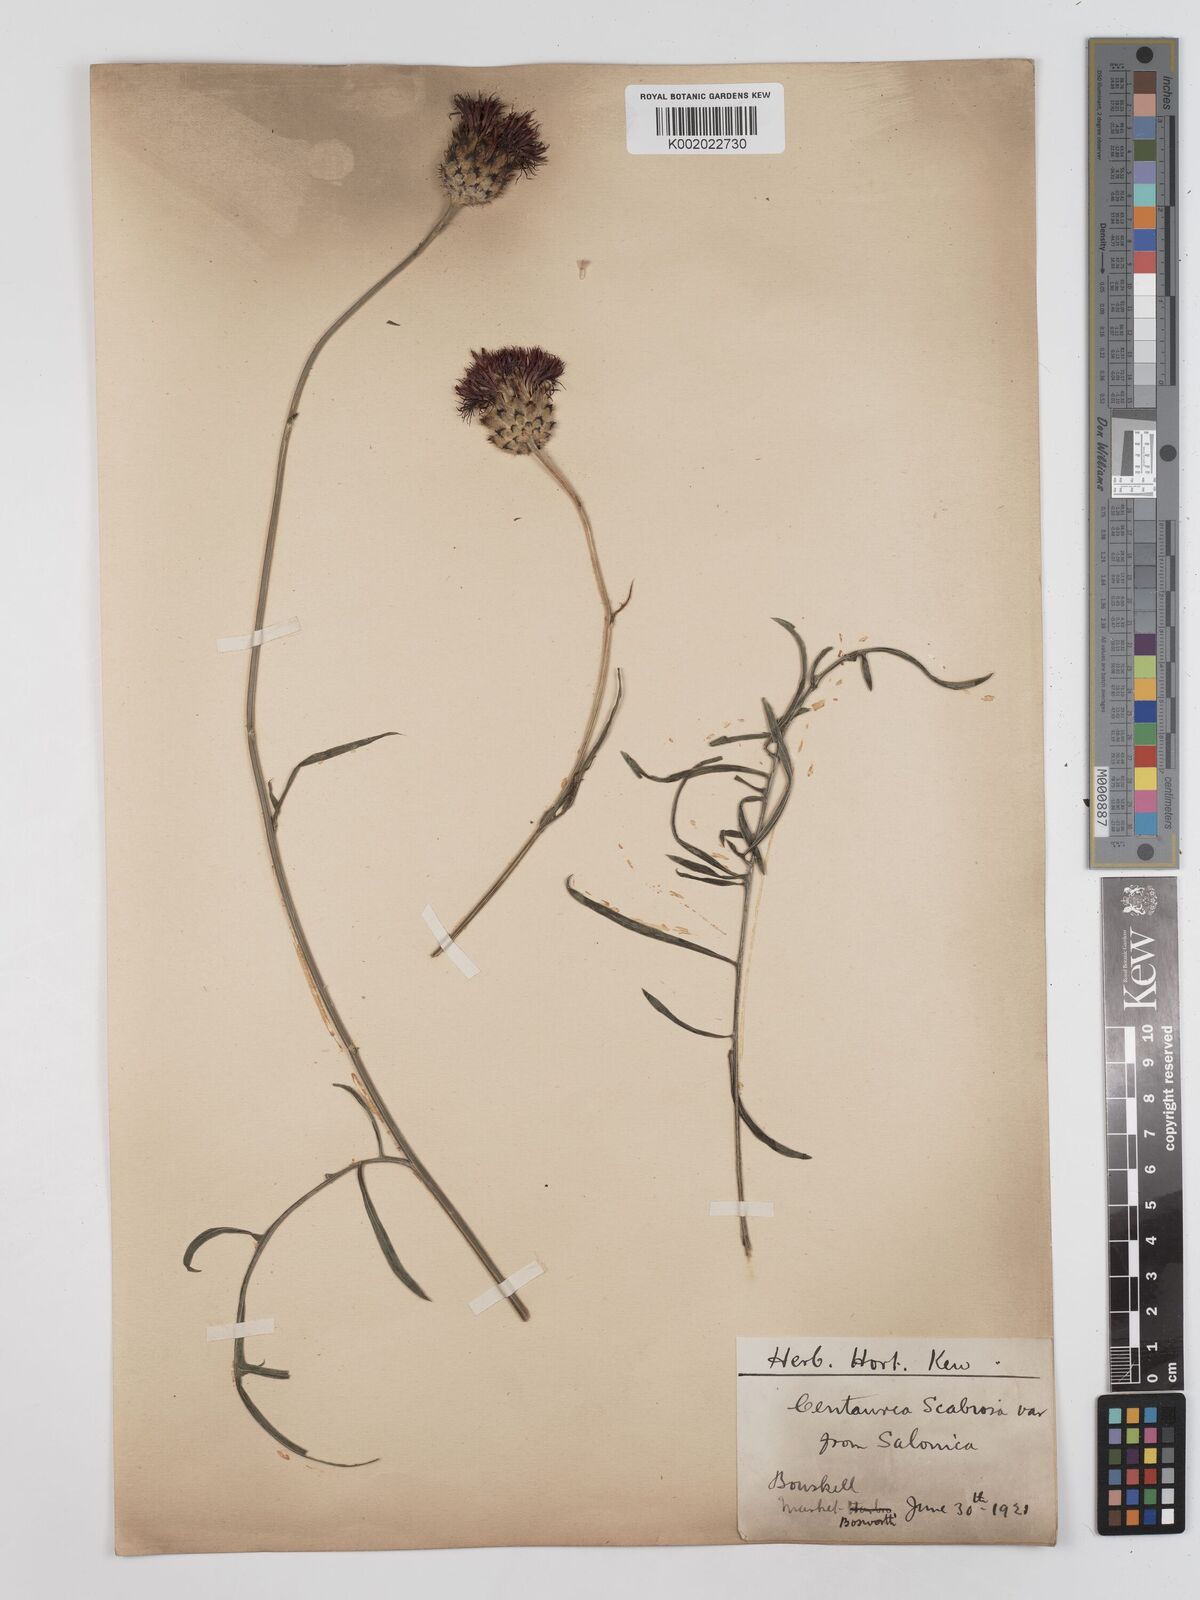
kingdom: Plantae
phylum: Tracheophyta
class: Magnoliopsida
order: Asterales
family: Asteraceae
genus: Centaurea
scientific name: Centaurea
